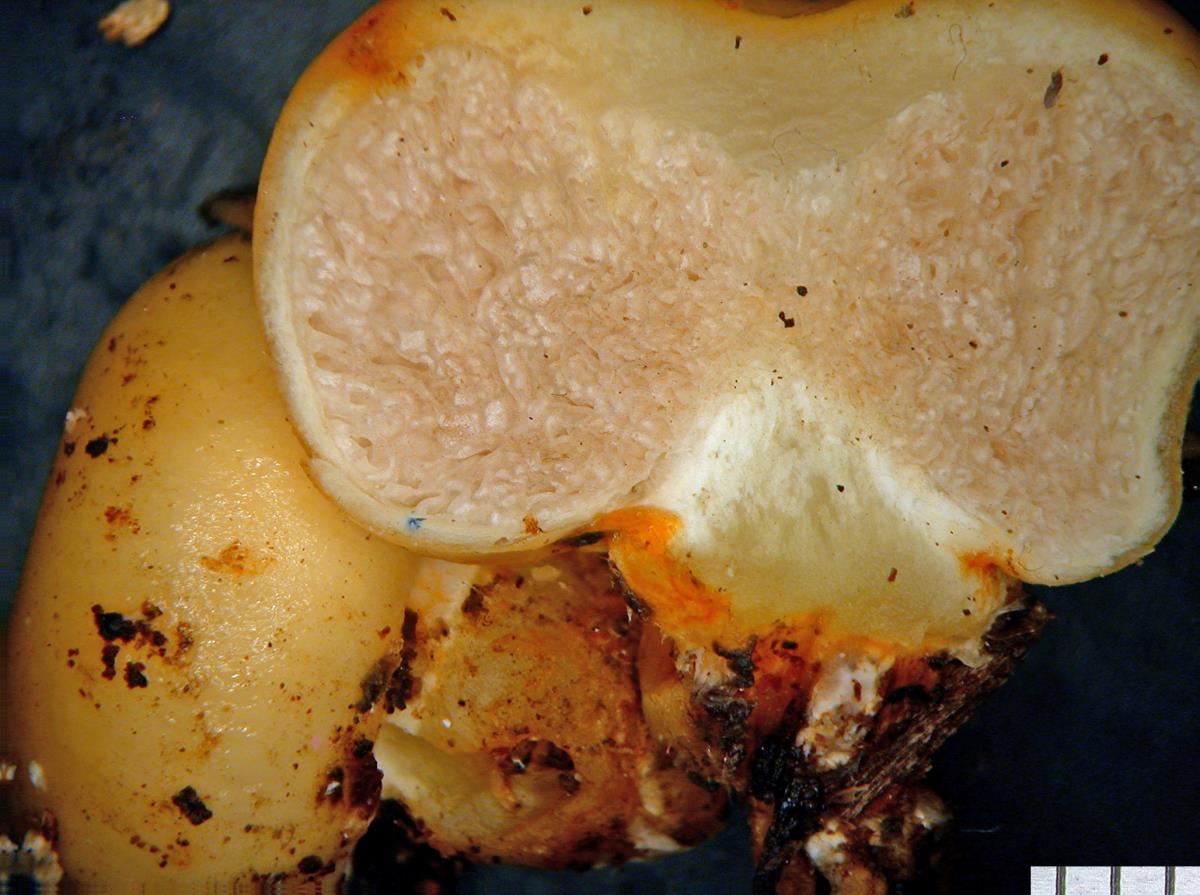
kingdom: Fungi
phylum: Basidiomycota
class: Agaricomycetes
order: Agaricales
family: Strophariaceae
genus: Leratiomyces
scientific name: Leratiomyces erythrocephalus
